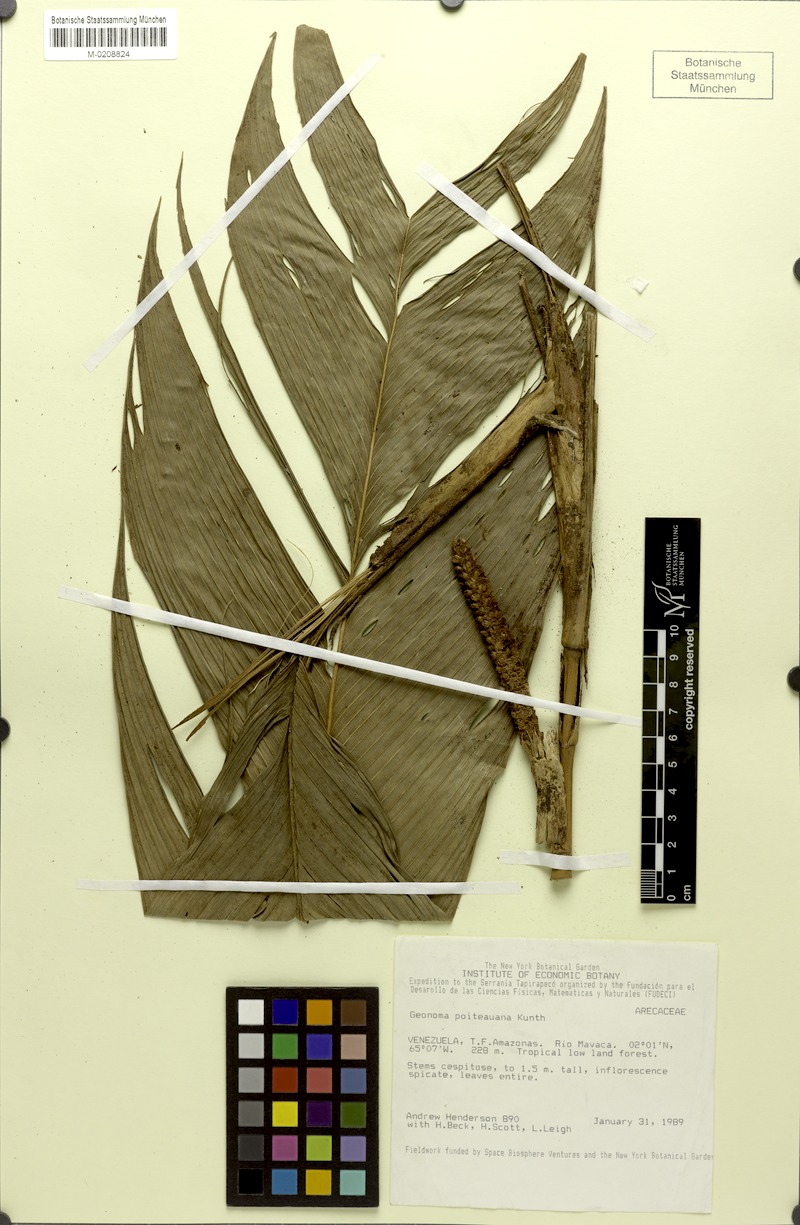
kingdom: Plantae
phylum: Tracheophyta
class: Liliopsida
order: Arecales
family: Arecaceae
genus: Geonoma
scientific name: Geonoma poiteauana
